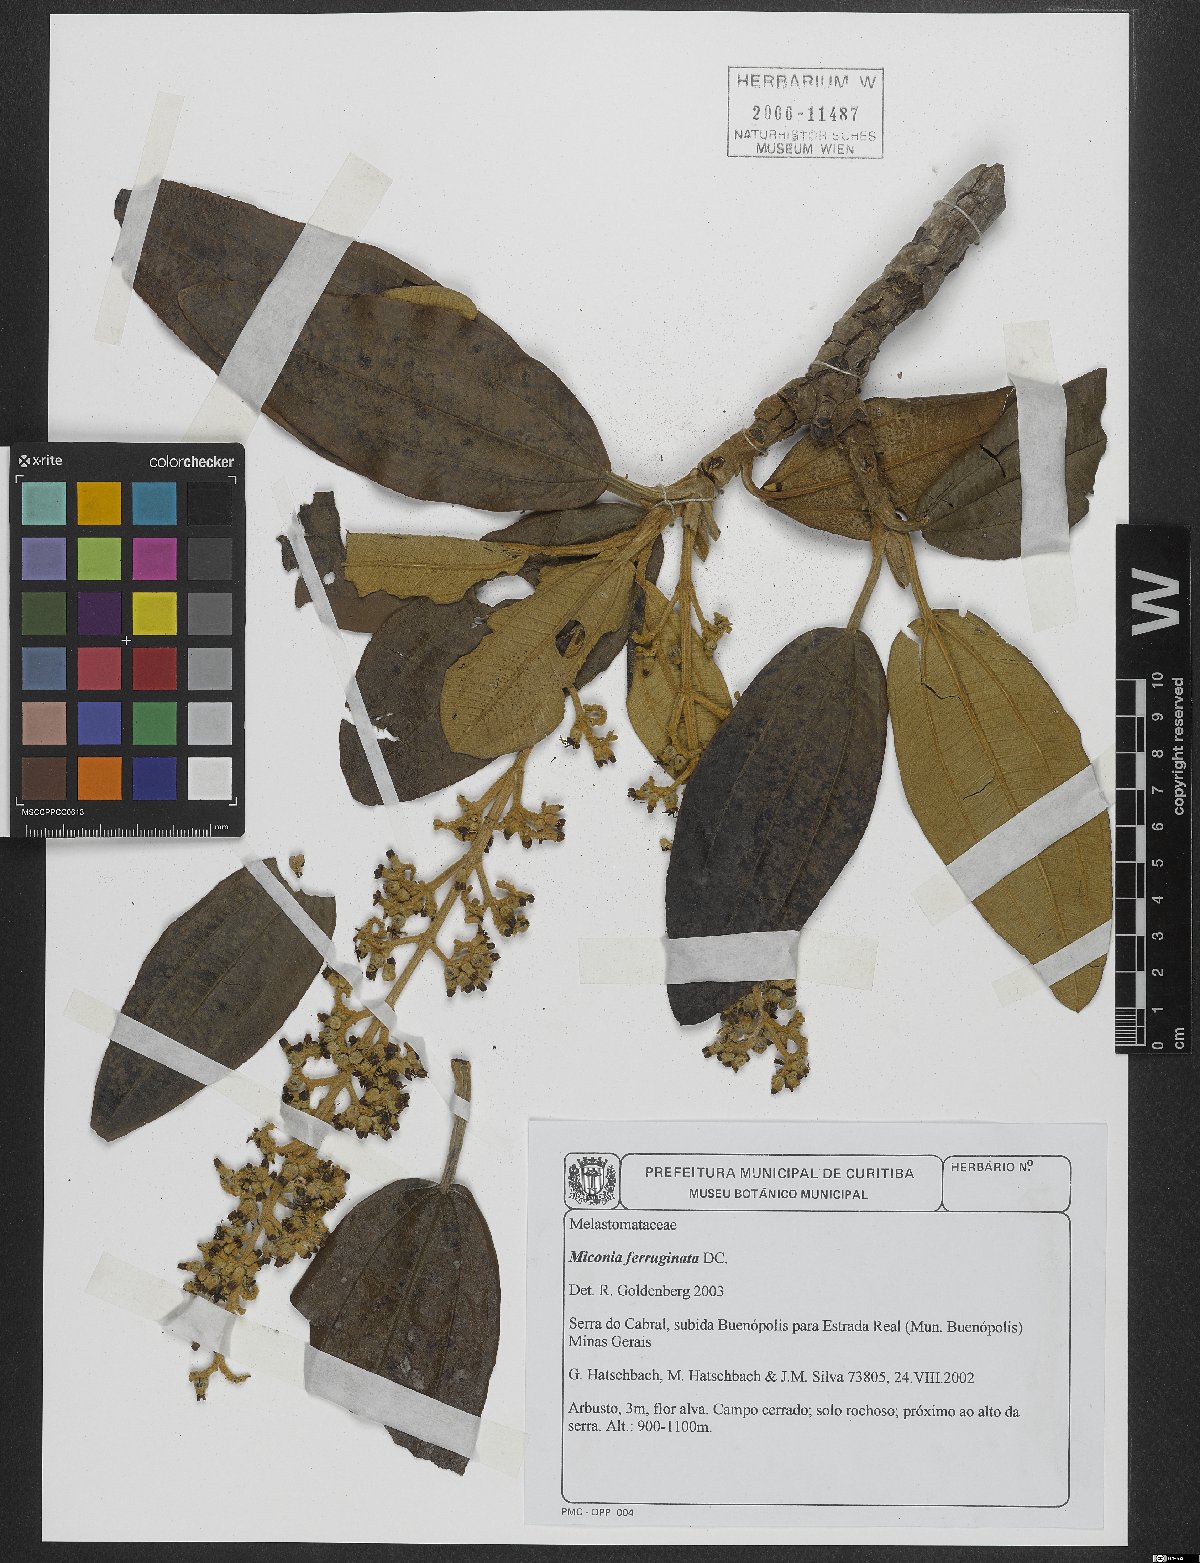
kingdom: Plantae
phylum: Tracheophyta
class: Magnoliopsida
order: Myrtales
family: Melastomataceae
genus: Miconia
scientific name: Miconia ferruginata
